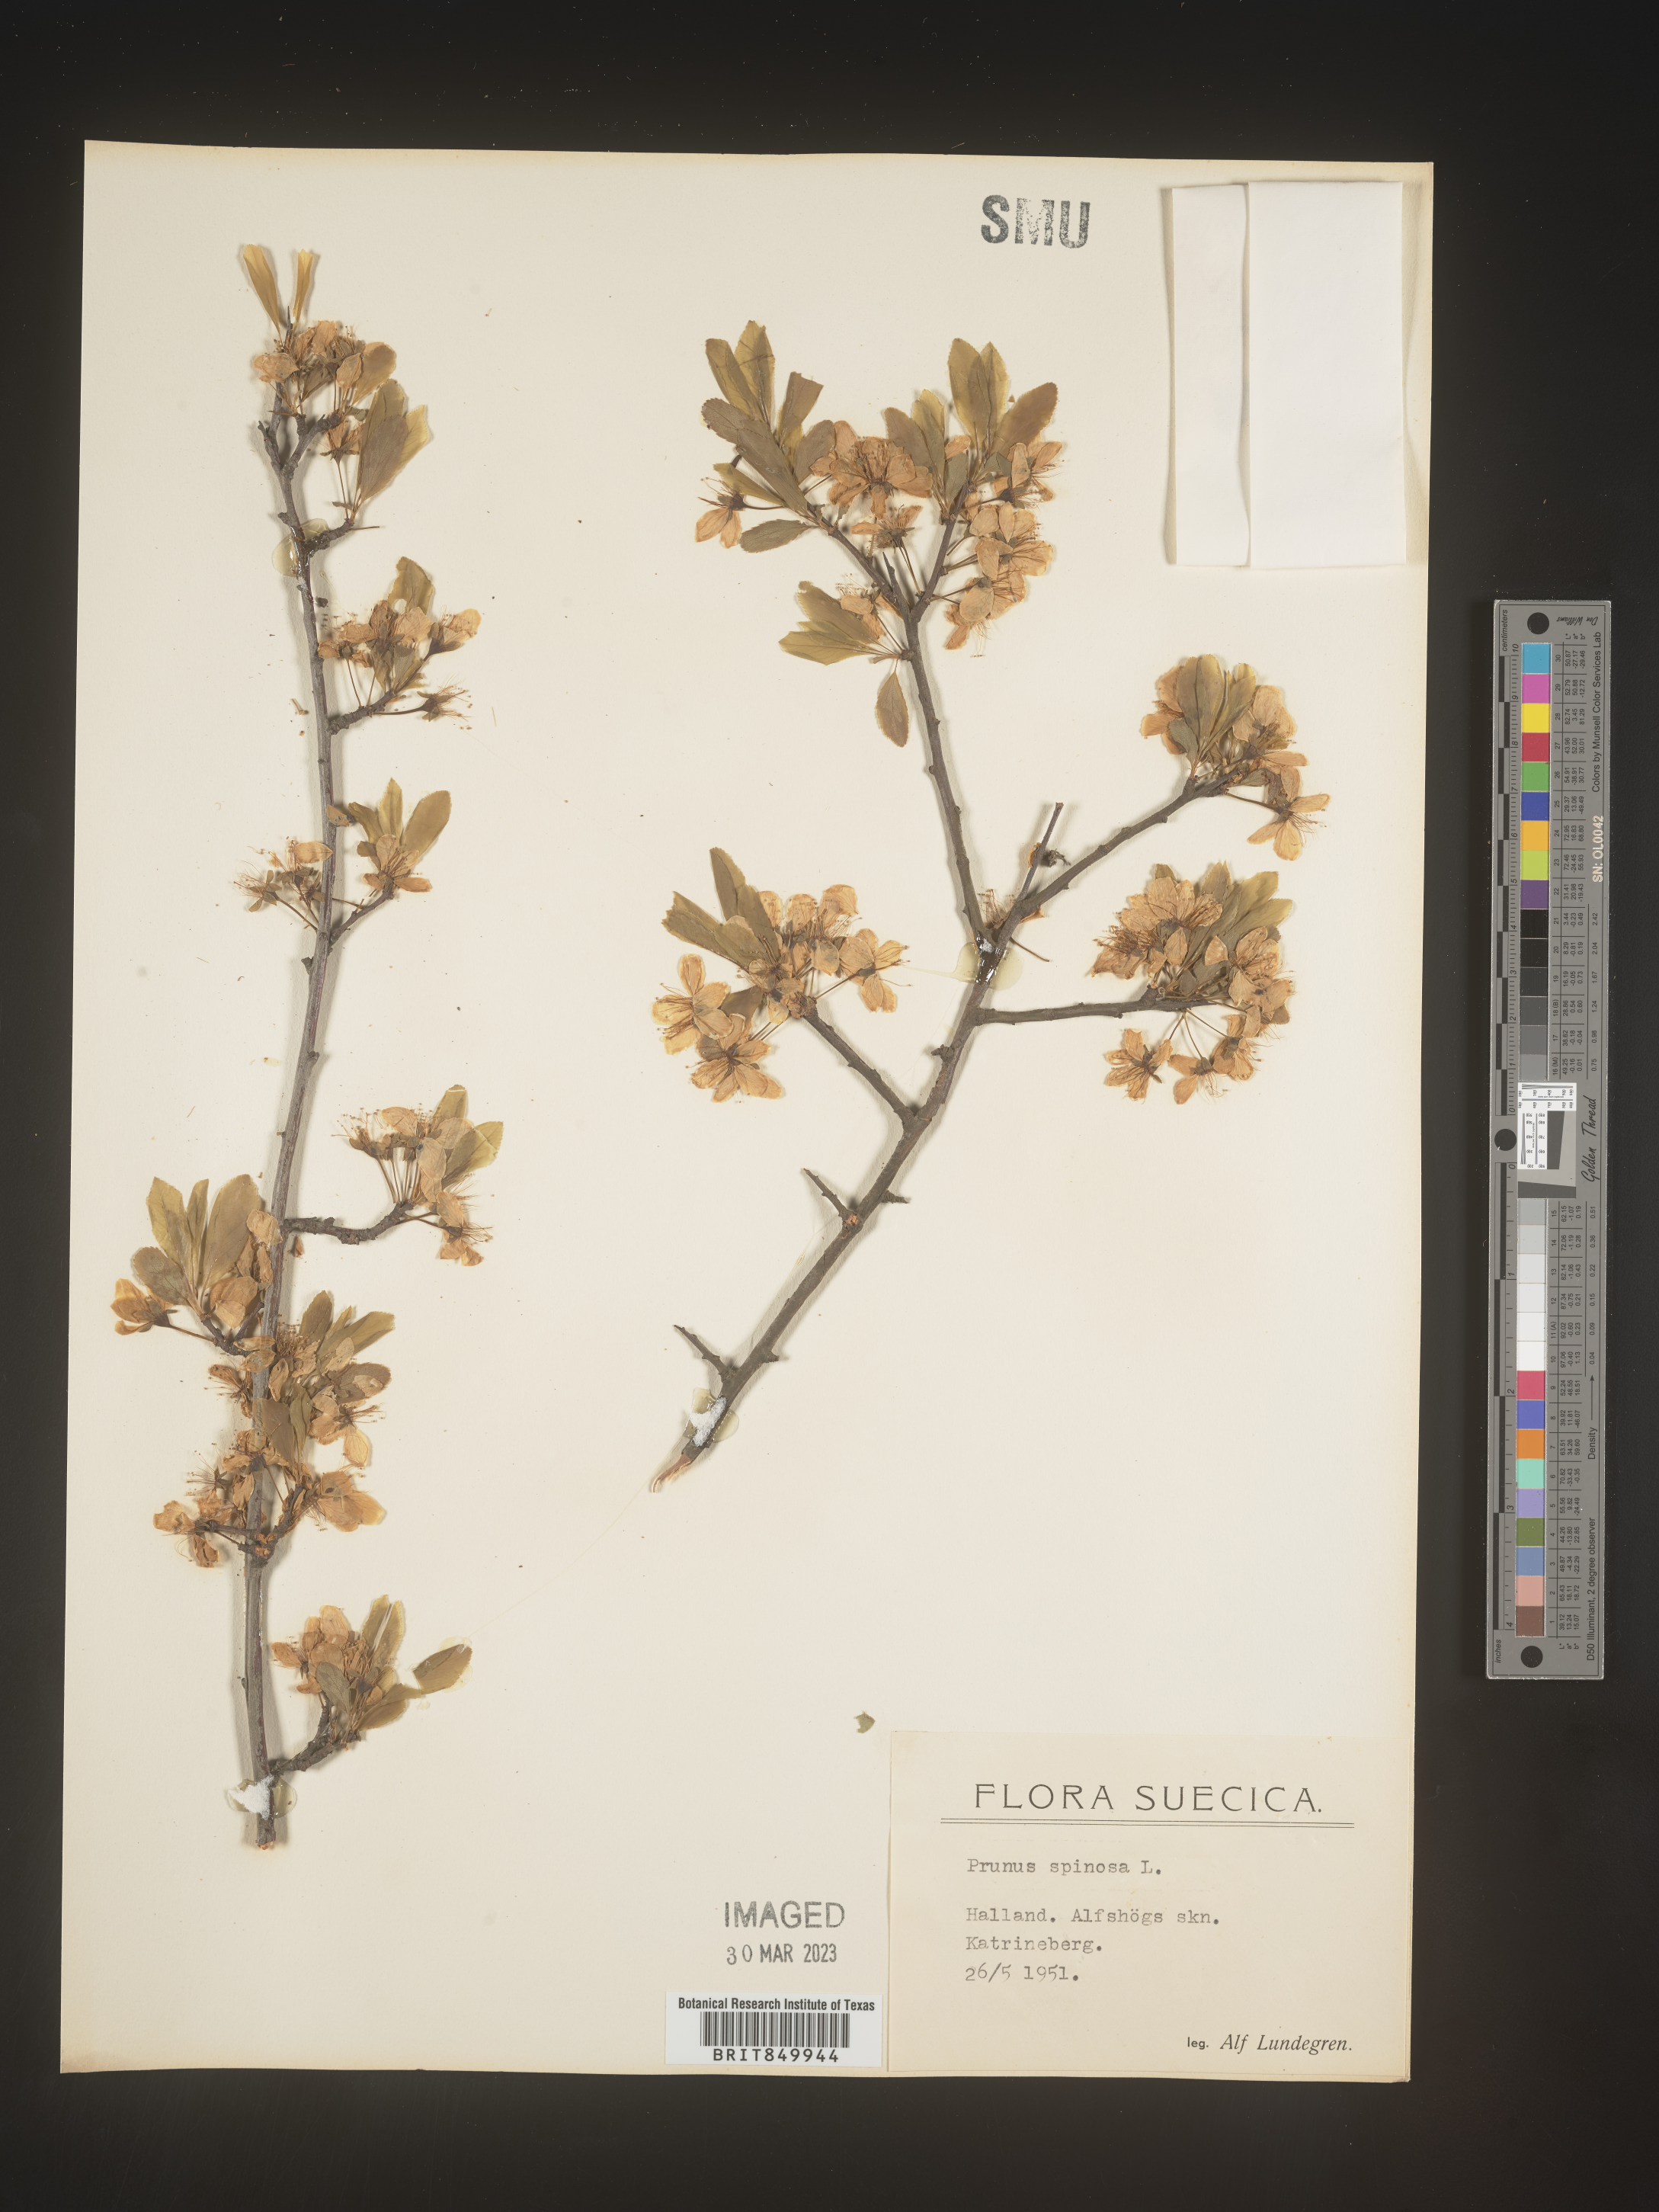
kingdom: Plantae
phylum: Tracheophyta
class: Magnoliopsida
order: Rosales
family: Rosaceae
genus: Pyrus
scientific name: Pyrus
